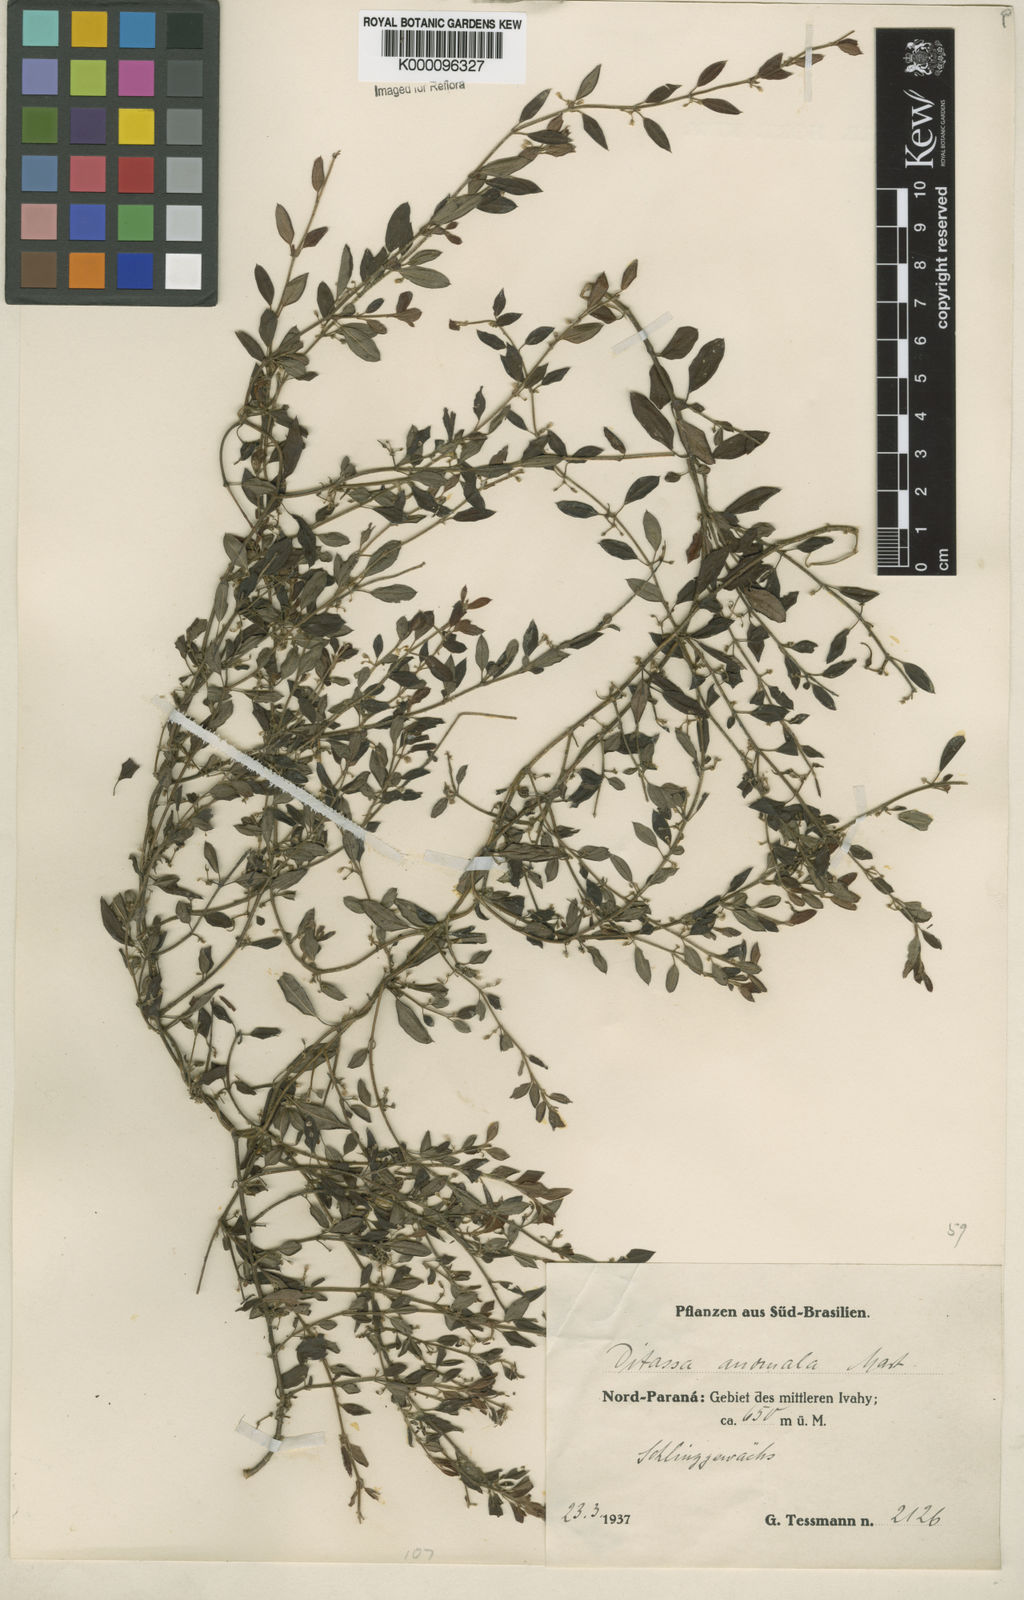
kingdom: Plantae
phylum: Tracheophyta
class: Magnoliopsida
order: Gentianales
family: Apocynaceae
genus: Metastelma
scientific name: Metastelma burchellii
